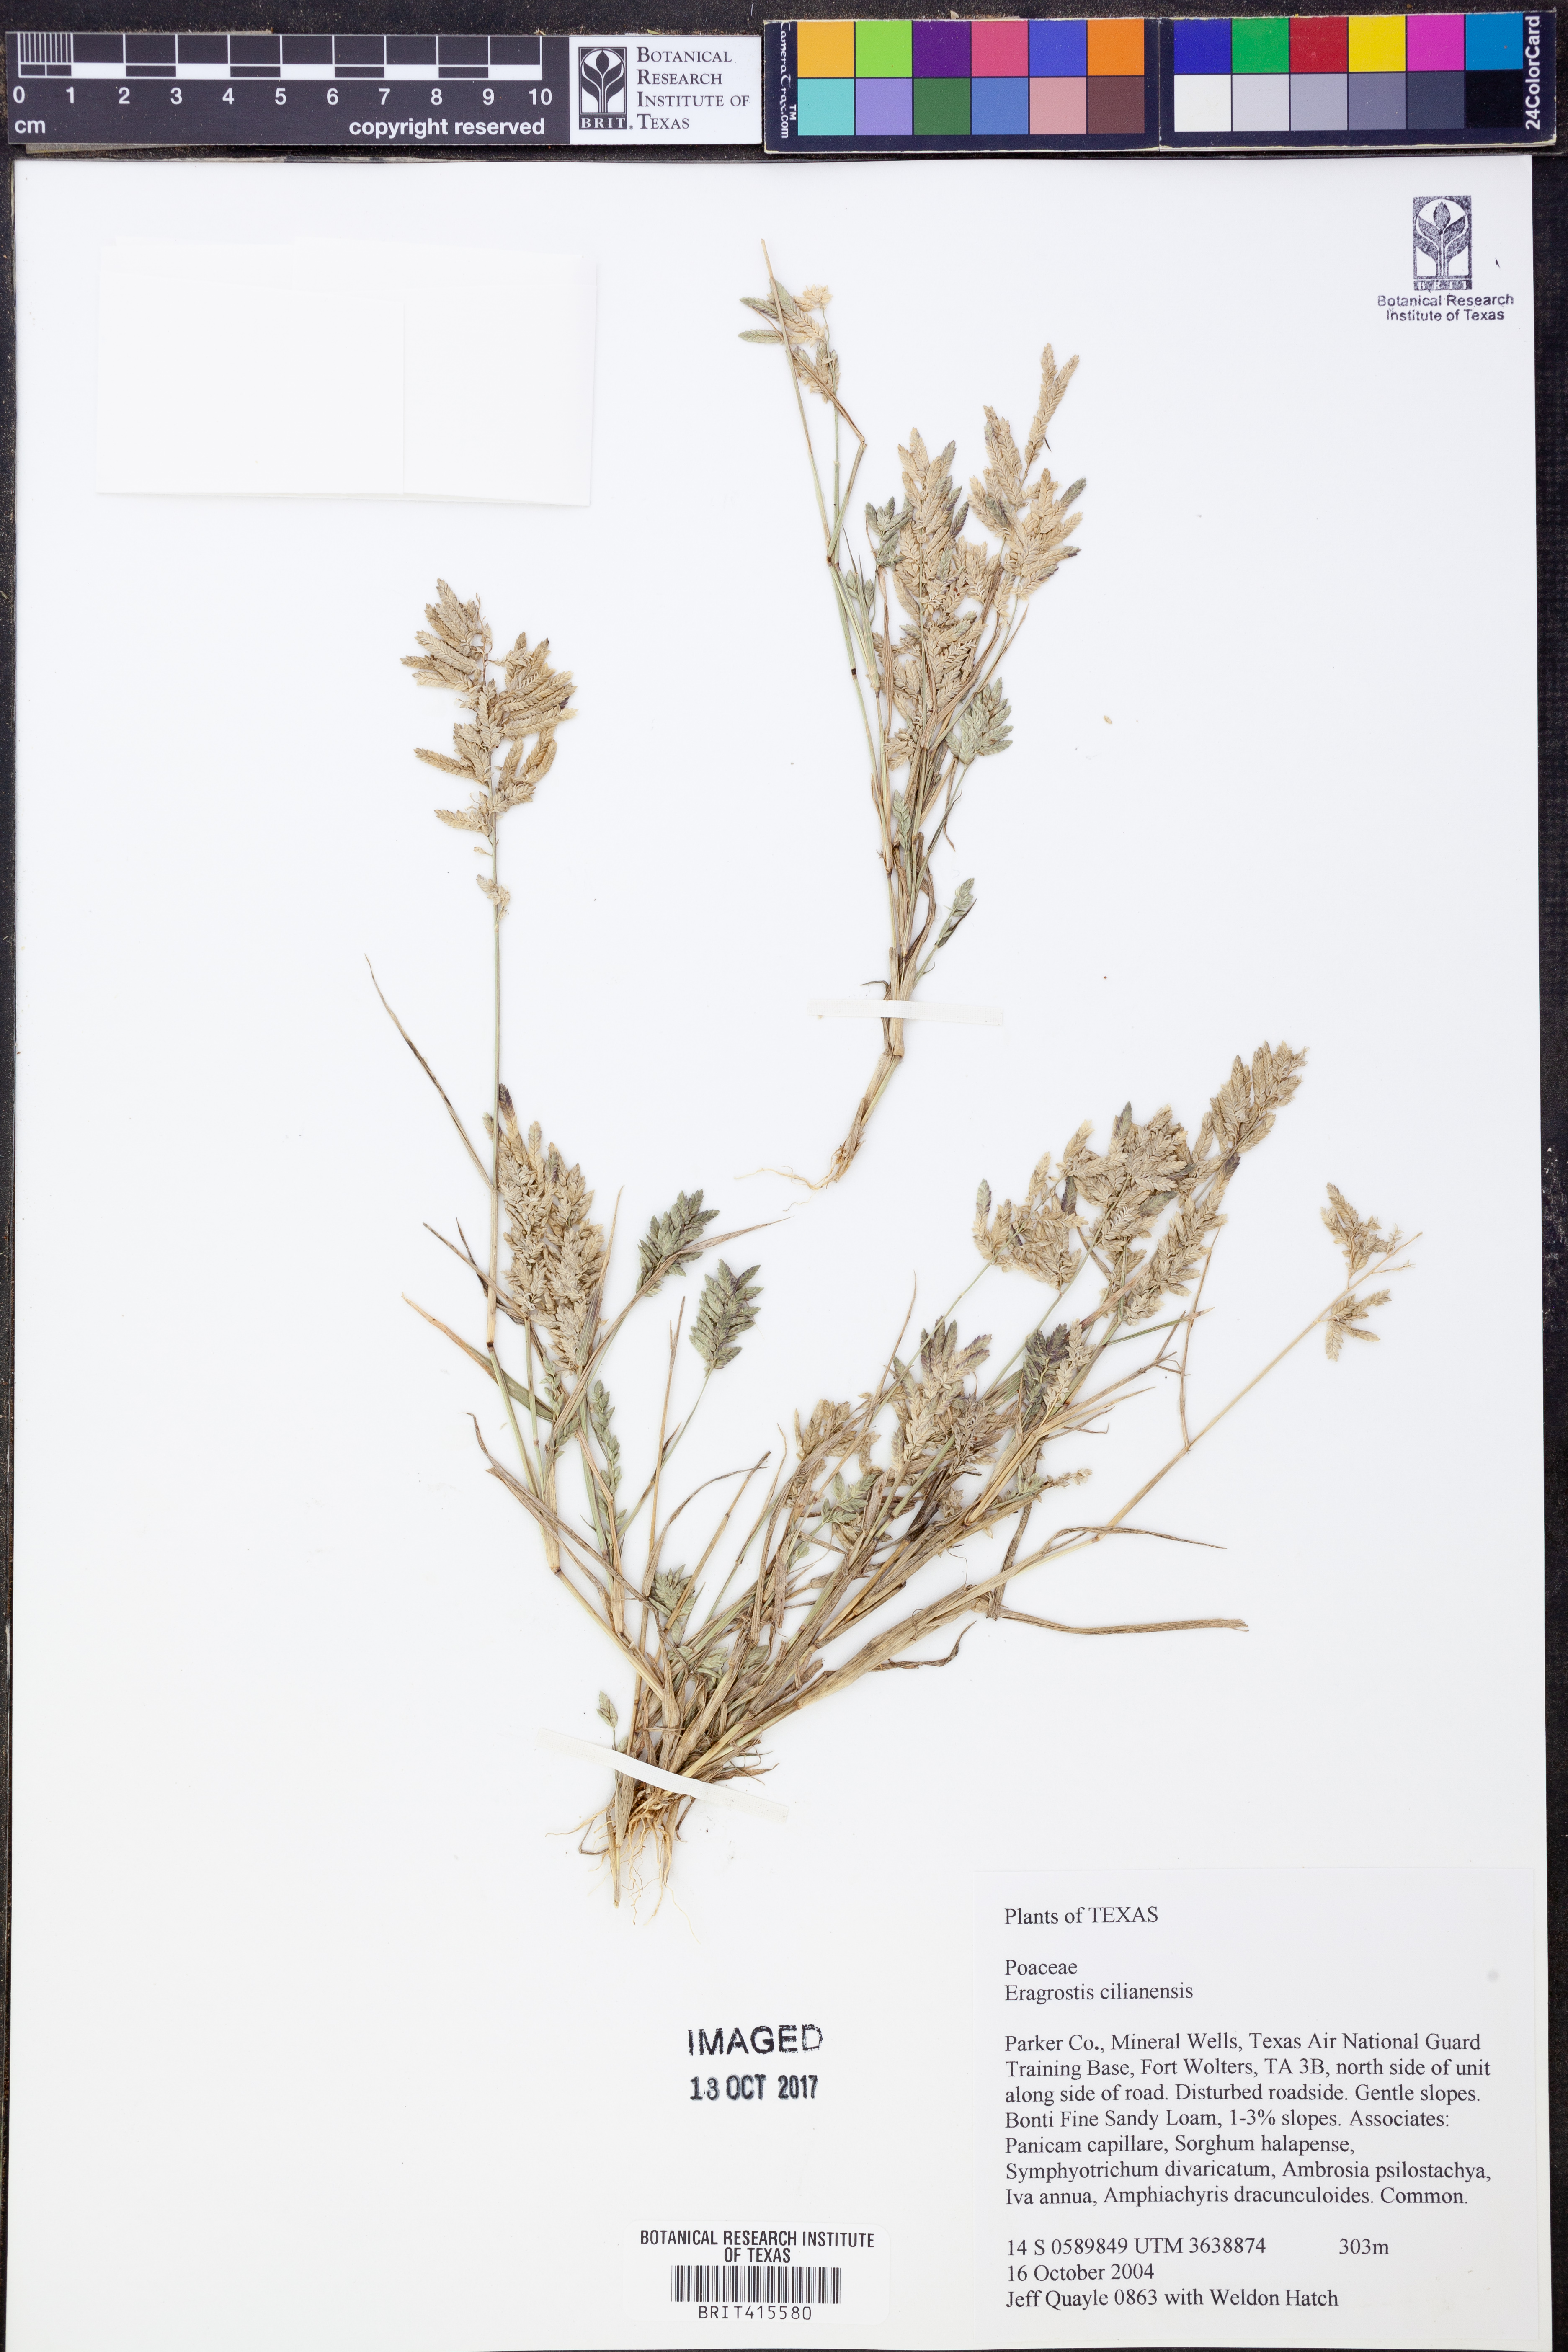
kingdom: Plantae
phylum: Tracheophyta
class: Liliopsida
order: Poales
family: Poaceae
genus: Eragrostis
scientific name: Eragrostis cilianensis
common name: Stinkgrass
